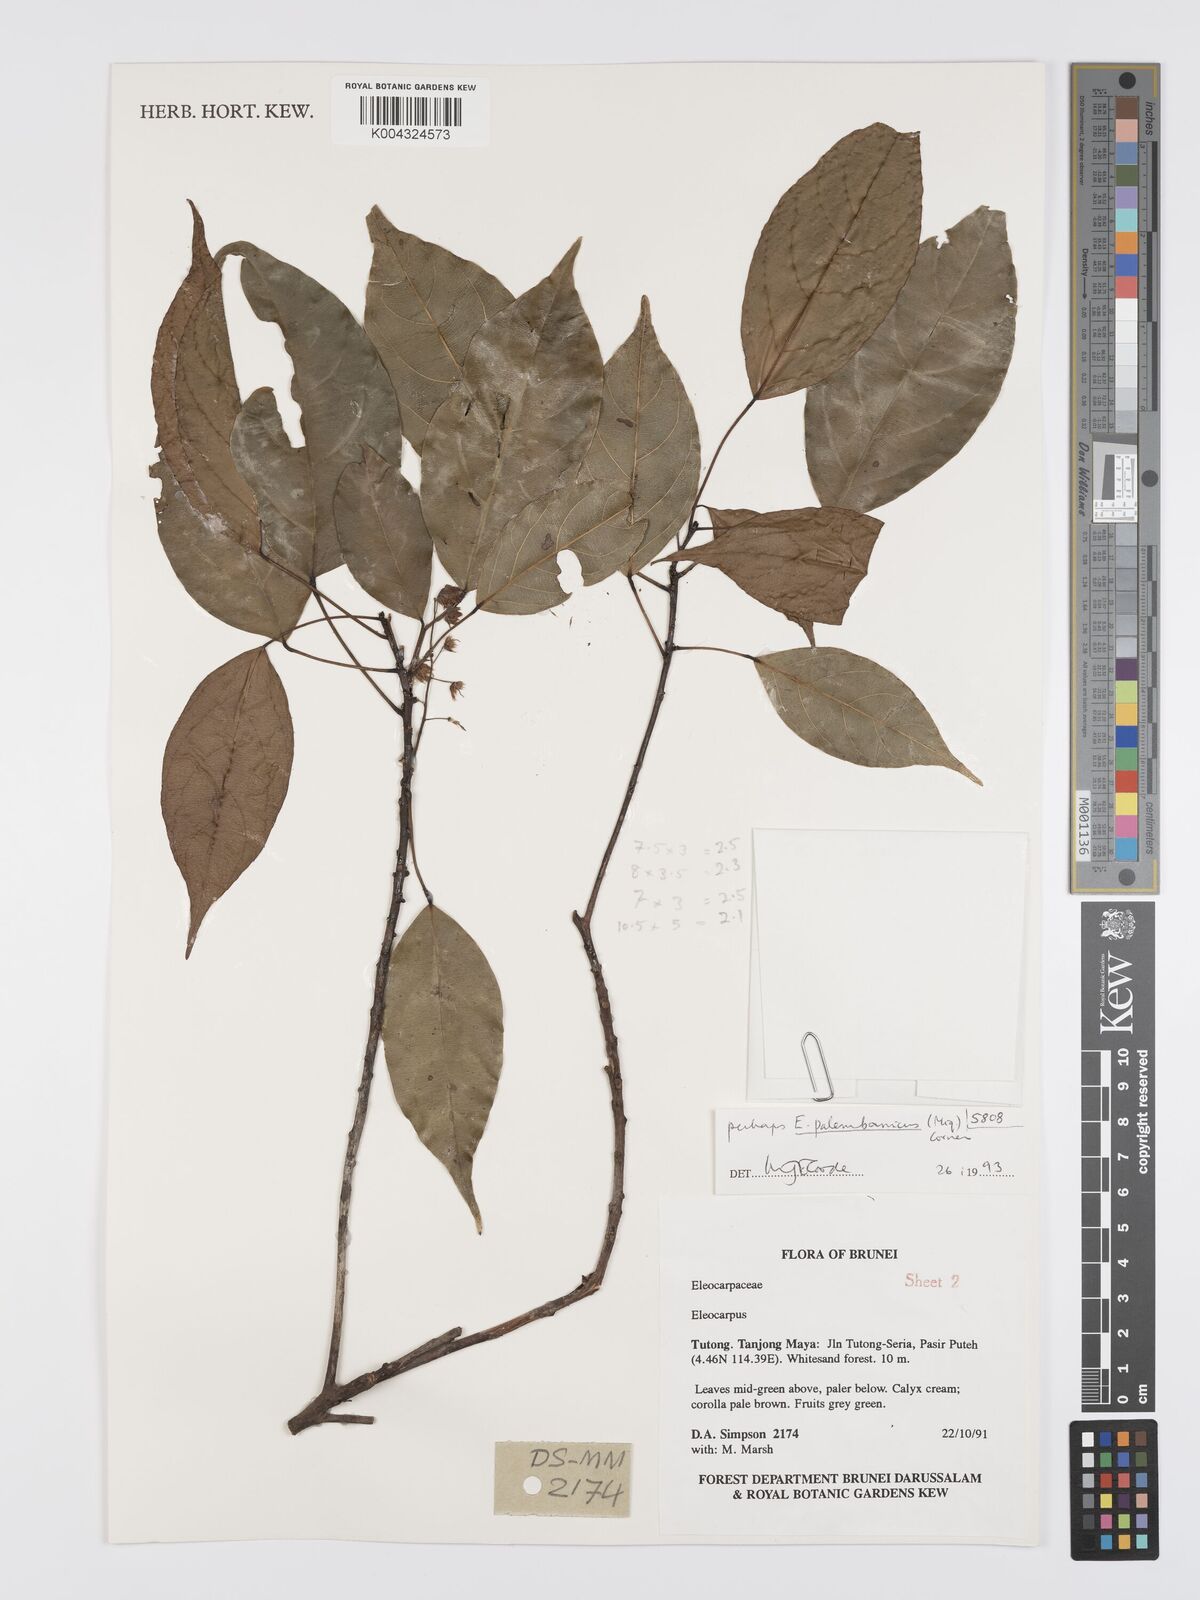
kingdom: Plantae
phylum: Tracheophyta
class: Magnoliopsida
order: Oxalidales
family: Elaeocarpaceae
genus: Elaeocarpus
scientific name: Elaeocarpus palembanicus
